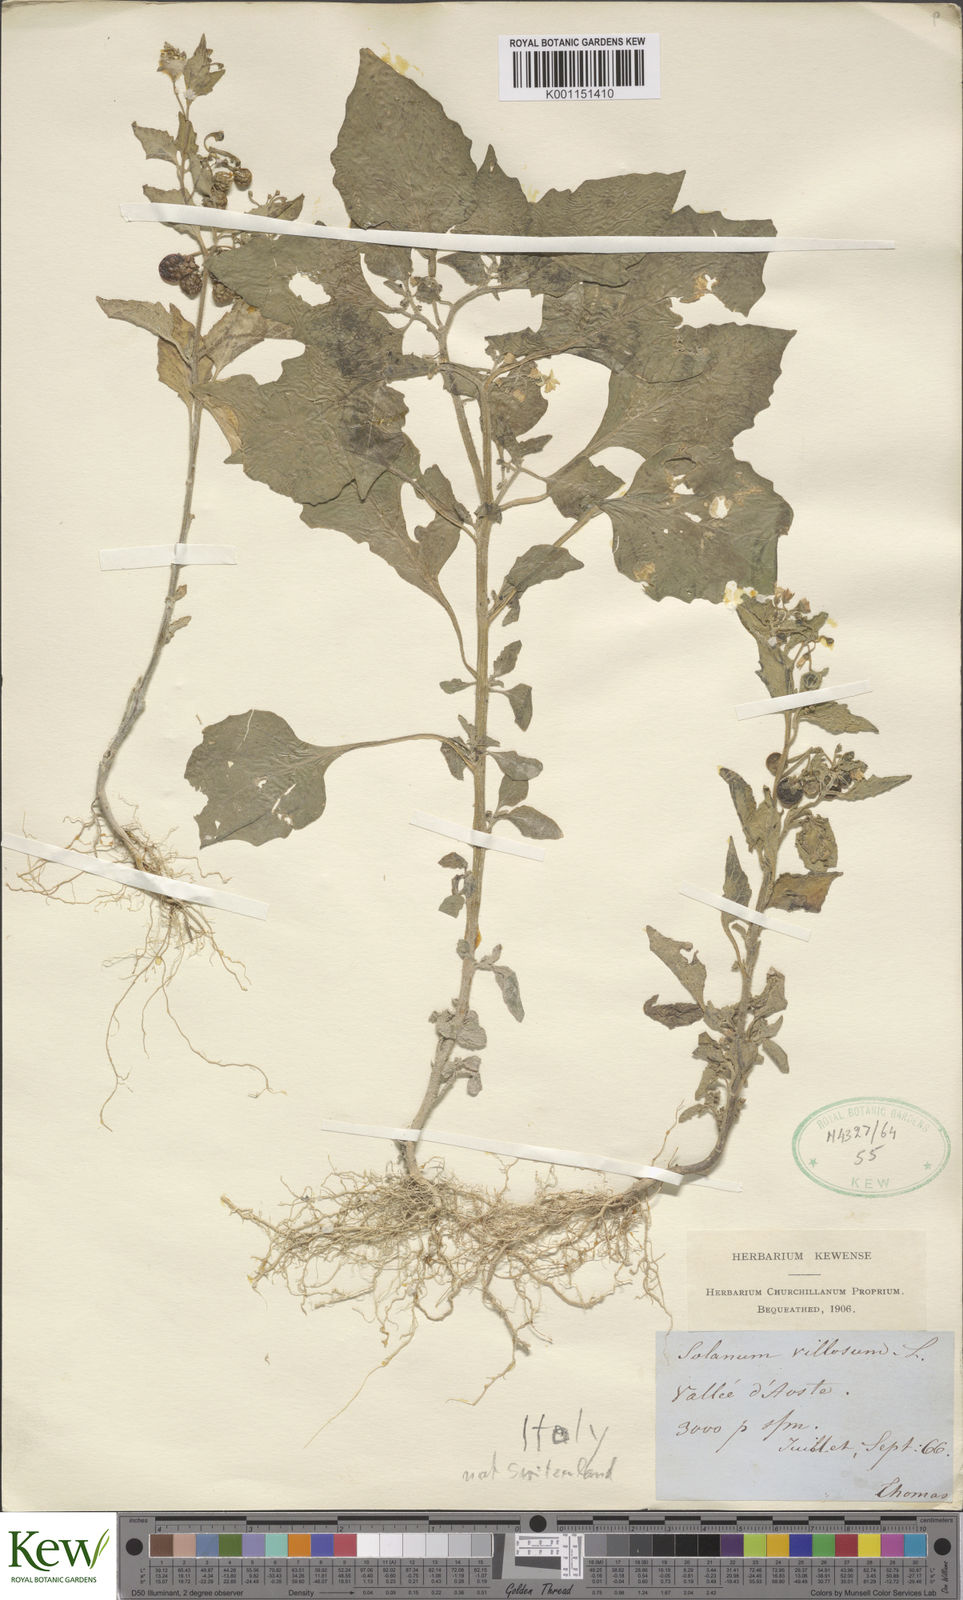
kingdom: Plantae
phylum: Tracheophyta
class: Magnoliopsida
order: Solanales
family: Solanaceae
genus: Solanum
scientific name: Solanum villosum
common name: Red nightshade
